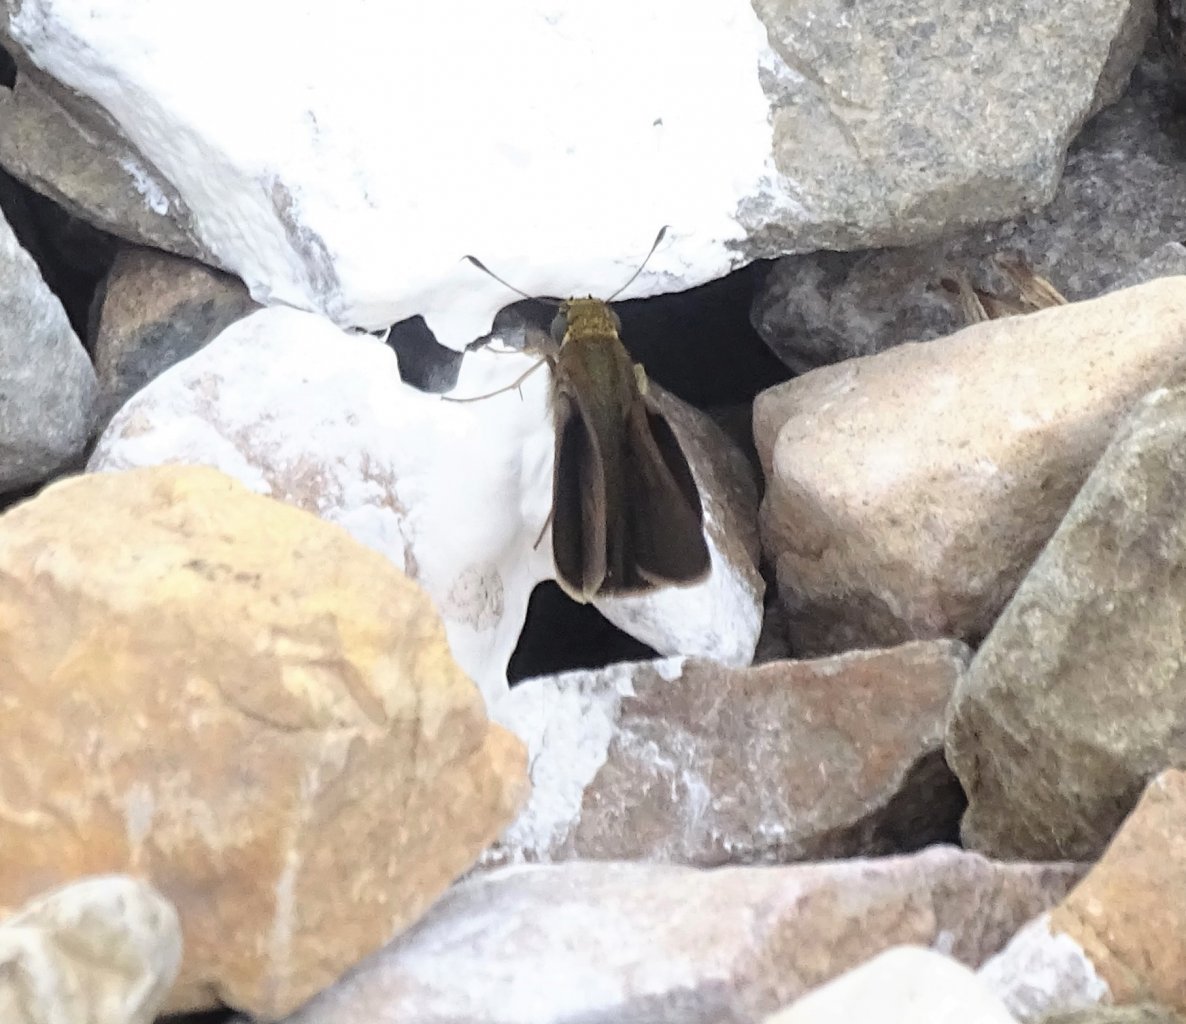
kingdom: Animalia
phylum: Arthropoda
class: Insecta
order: Lepidoptera
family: Hesperiidae
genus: Euphyes
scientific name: Euphyes vestris
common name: Dun Skipper
